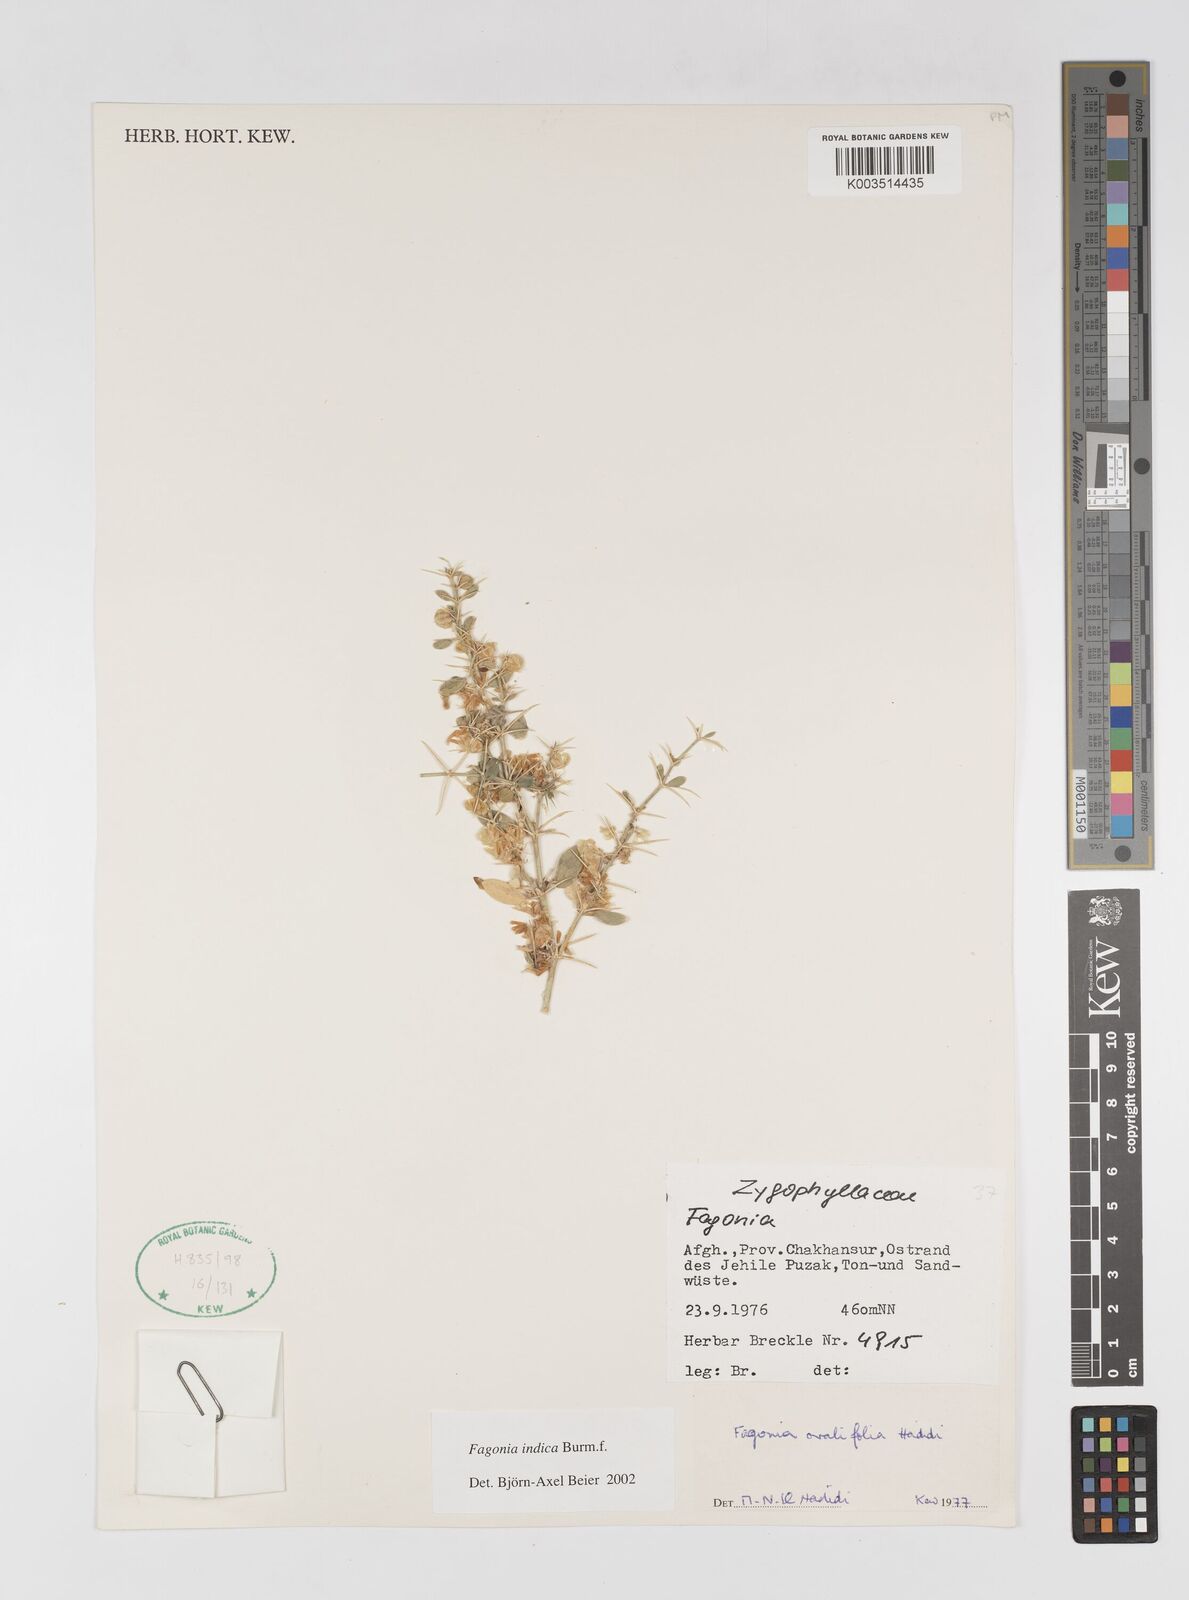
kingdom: Plantae
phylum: Tracheophyta
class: Magnoliopsida
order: Zygophyllales
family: Zygophyllaceae
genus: Fagonia
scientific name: Fagonia indica
